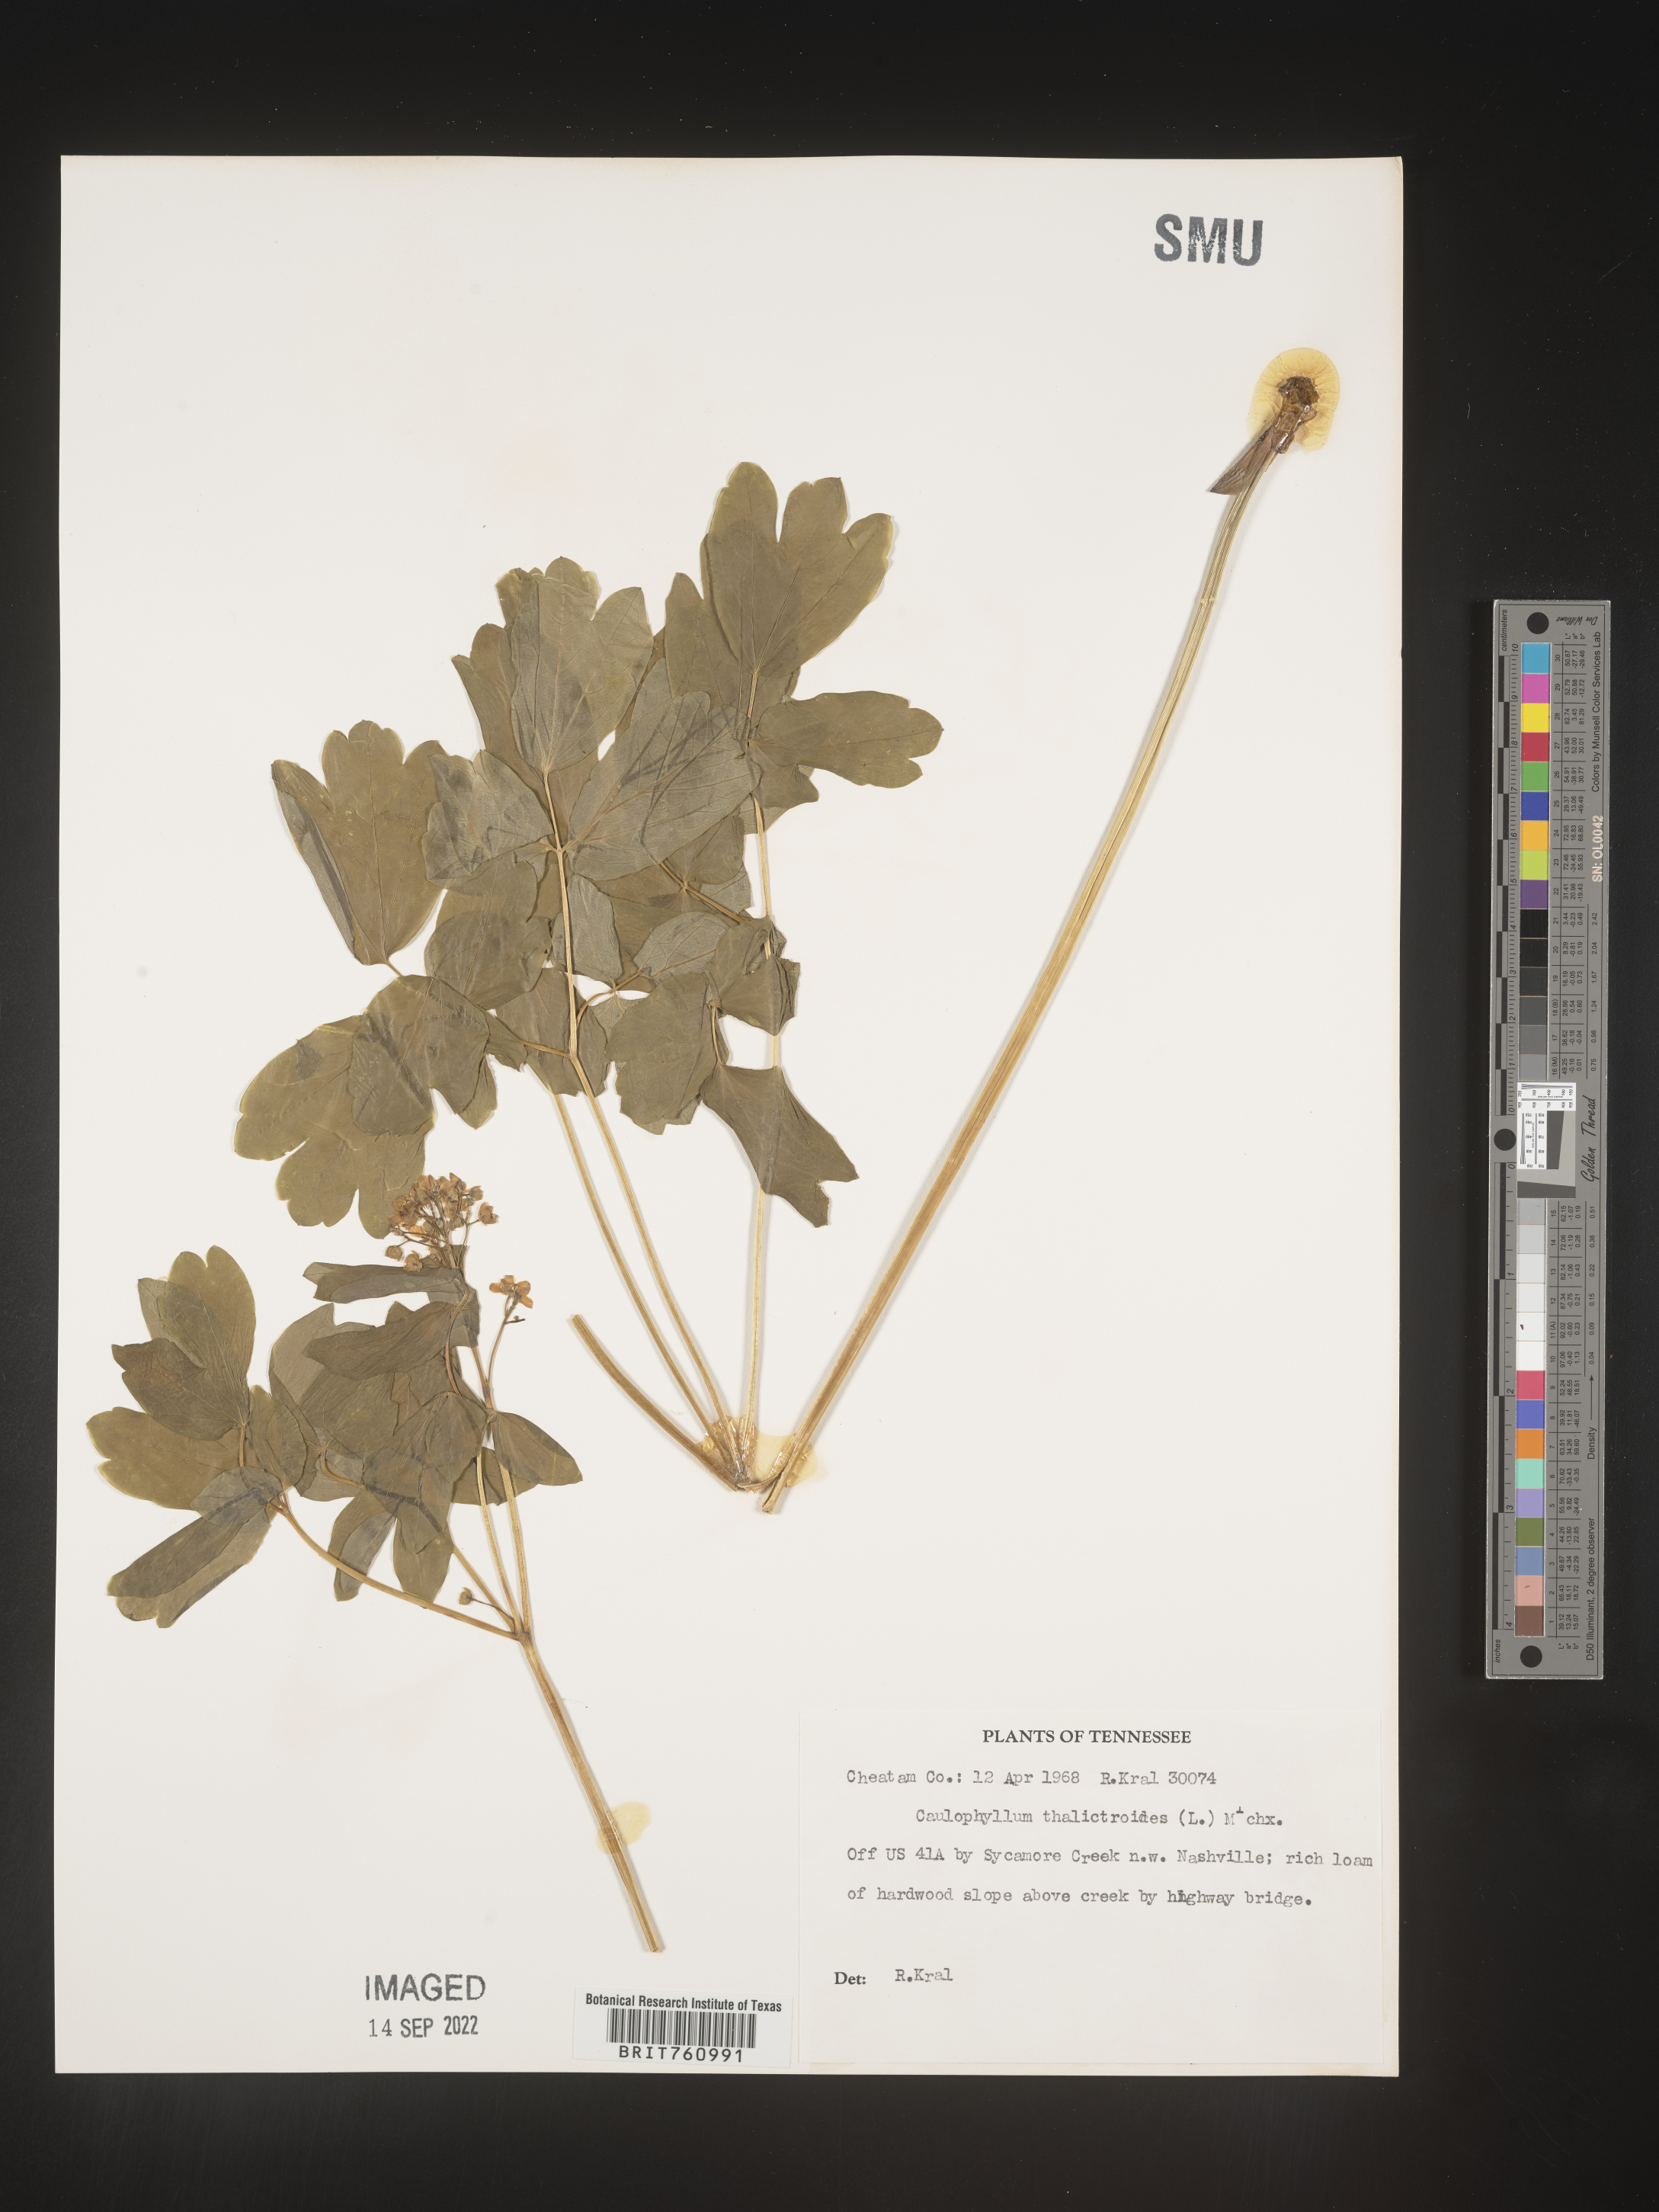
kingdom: Plantae
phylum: Tracheophyta
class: Magnoliopsida
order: Ranunculales
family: Berberidaceae
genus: Caulophyllum
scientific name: Caulophyllum thalictroides
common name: Blue cohosh
